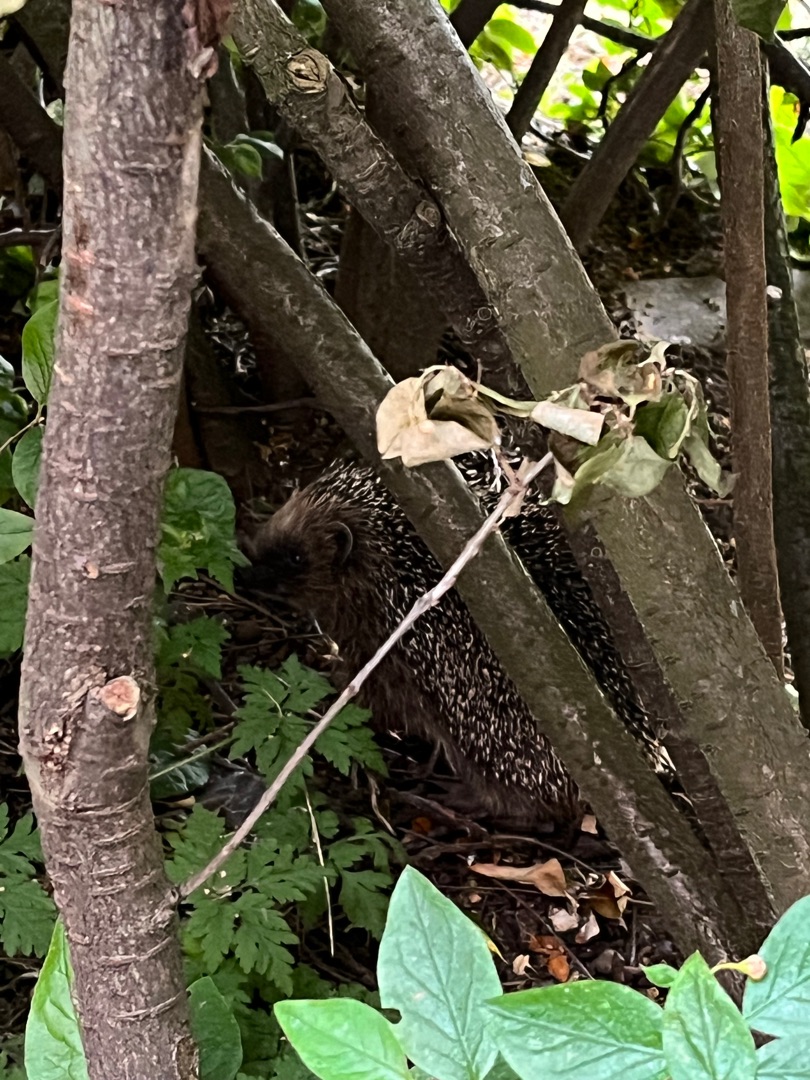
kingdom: Animalia
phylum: Chordata
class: Mammalia
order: Erinaceomorpha
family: Erinaceidae
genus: Erinaceus
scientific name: Erinaceus europaeus
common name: Pindsvin
